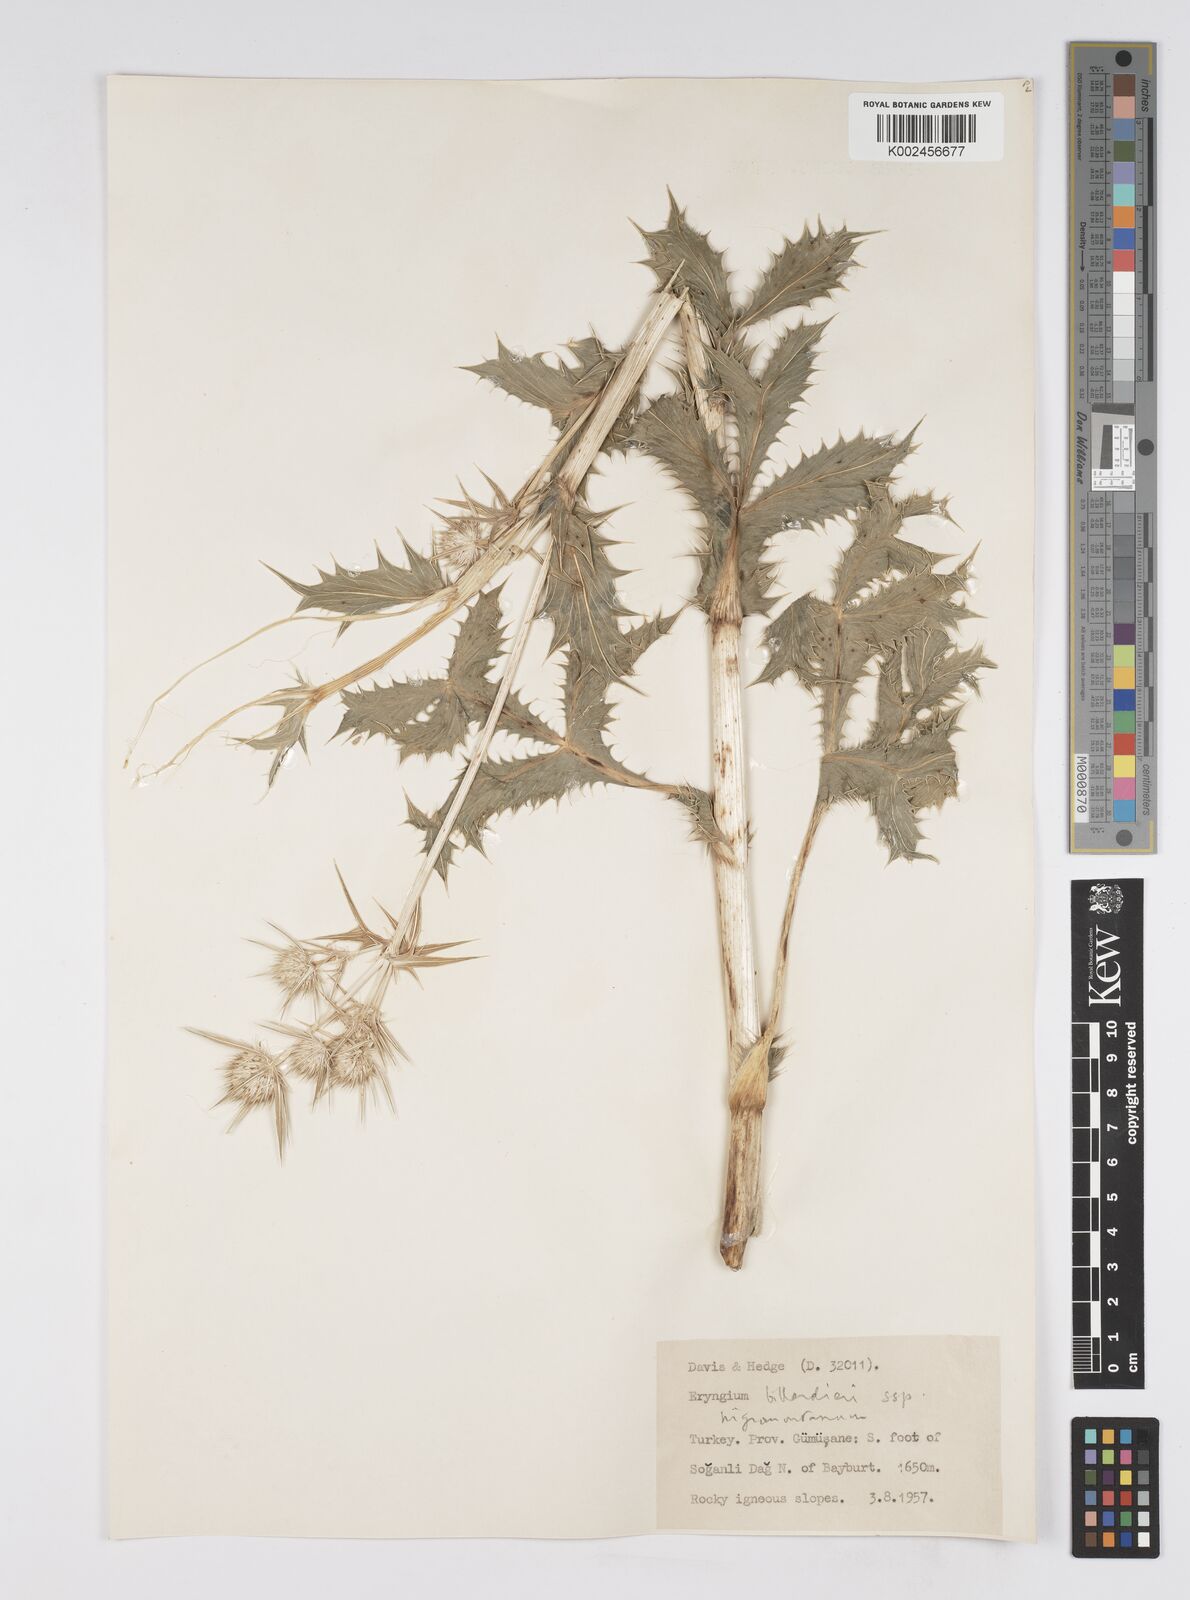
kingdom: Plantae
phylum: Tracheophyta
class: Magnoliopsida
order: Apiales
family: Apiaceae
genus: Eryngium
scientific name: Eryngium billardierei
